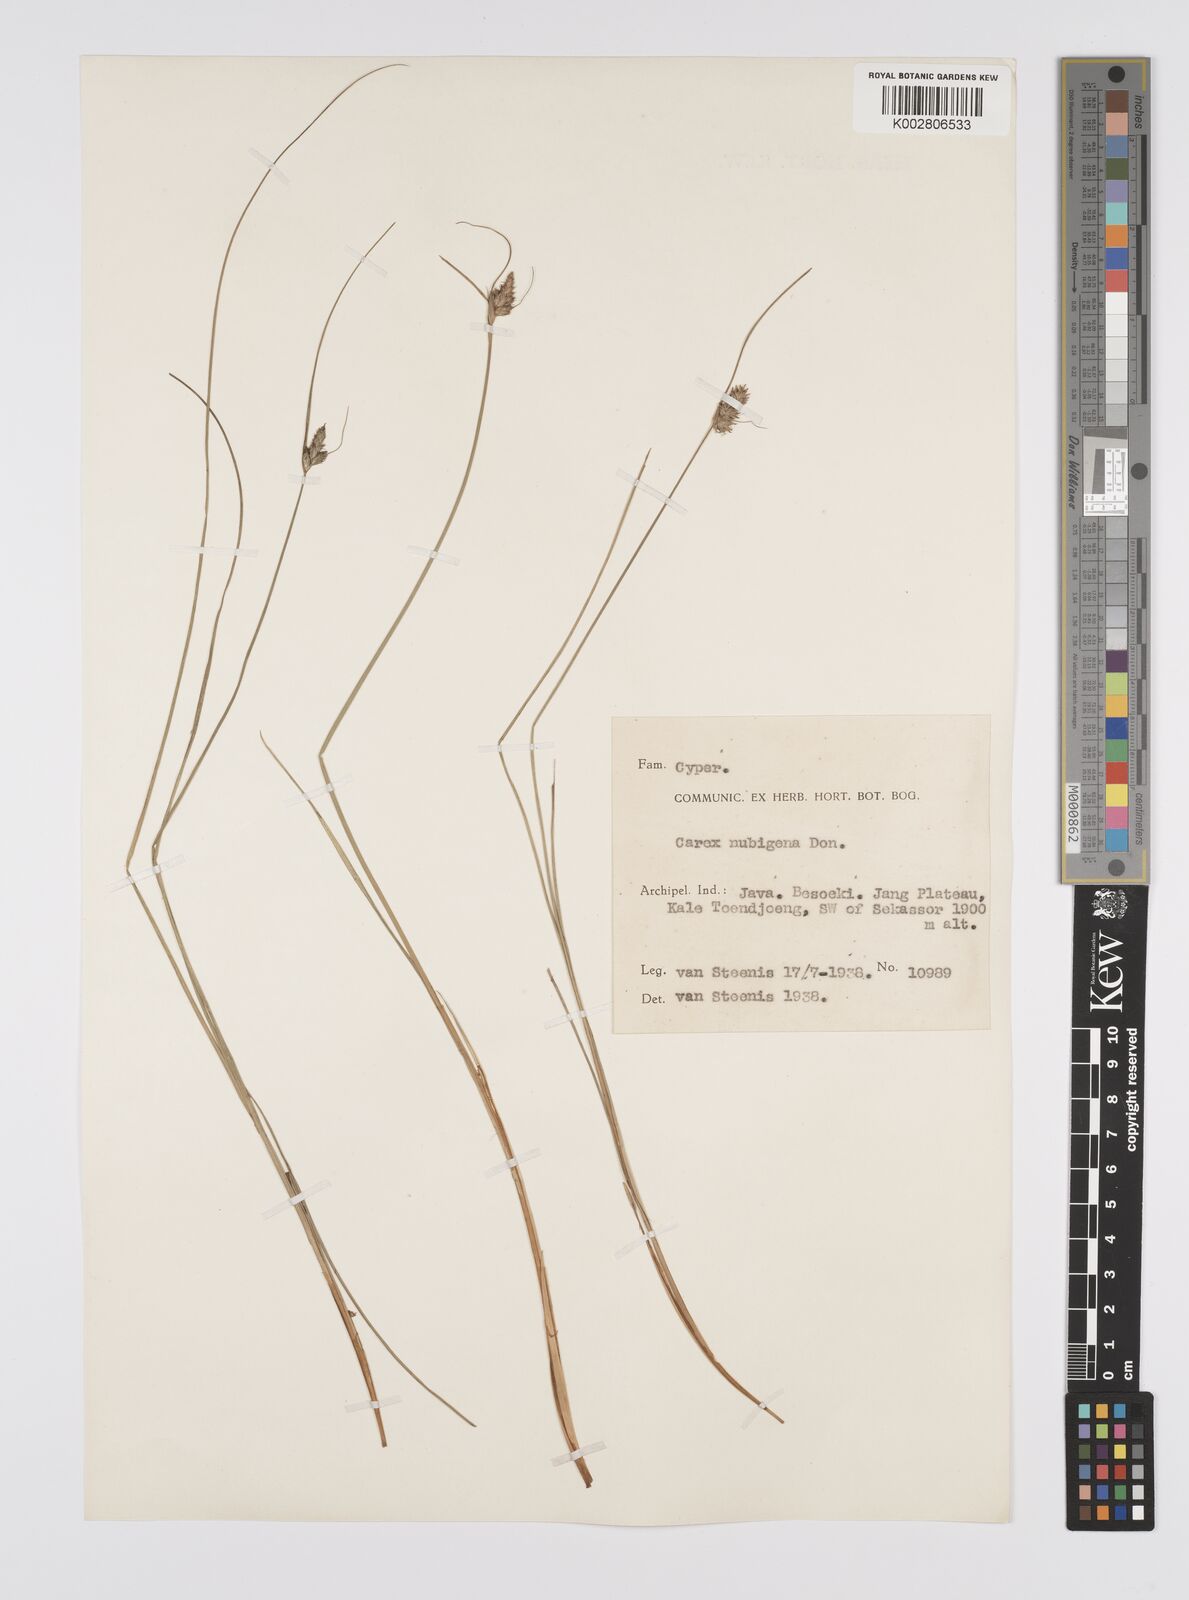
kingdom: Plantae
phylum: Tracheophyta
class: Liliopsida
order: Poales
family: Cyperaceae
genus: Carex
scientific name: Carex
